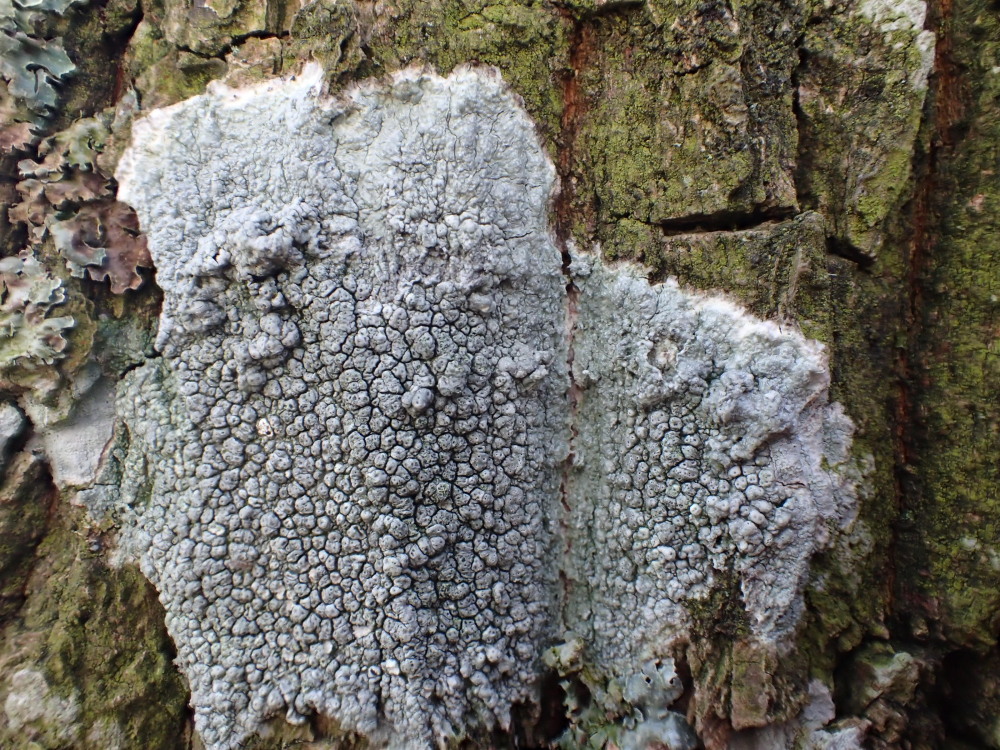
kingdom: Fungi
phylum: Ascomycota
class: Lecanoromycetes
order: Pertusariales
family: Pertusariaceae
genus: Pertusaria
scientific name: Pertusaria pertusa
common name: almindelig prikvortelav
